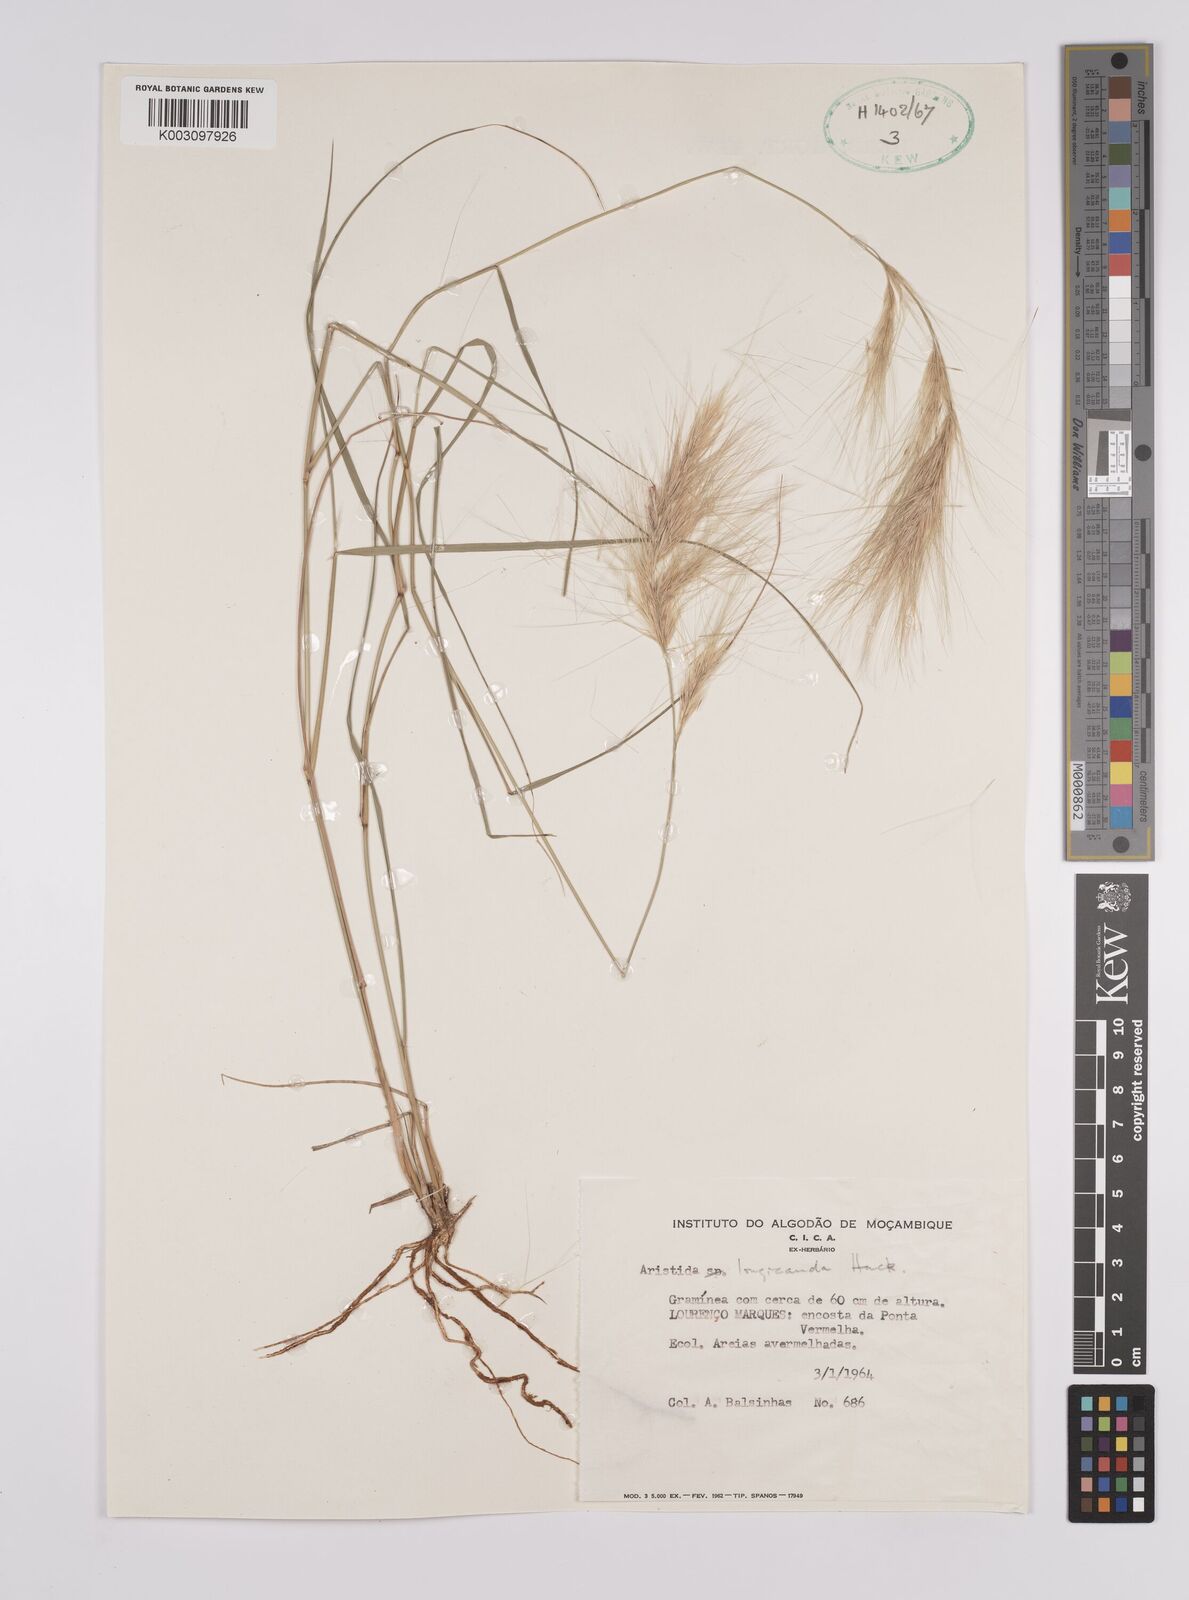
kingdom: Plantae
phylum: Tracheophyta
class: Liliopsida
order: Poales
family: Poaceae
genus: Aristida
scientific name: Aristida congesta
